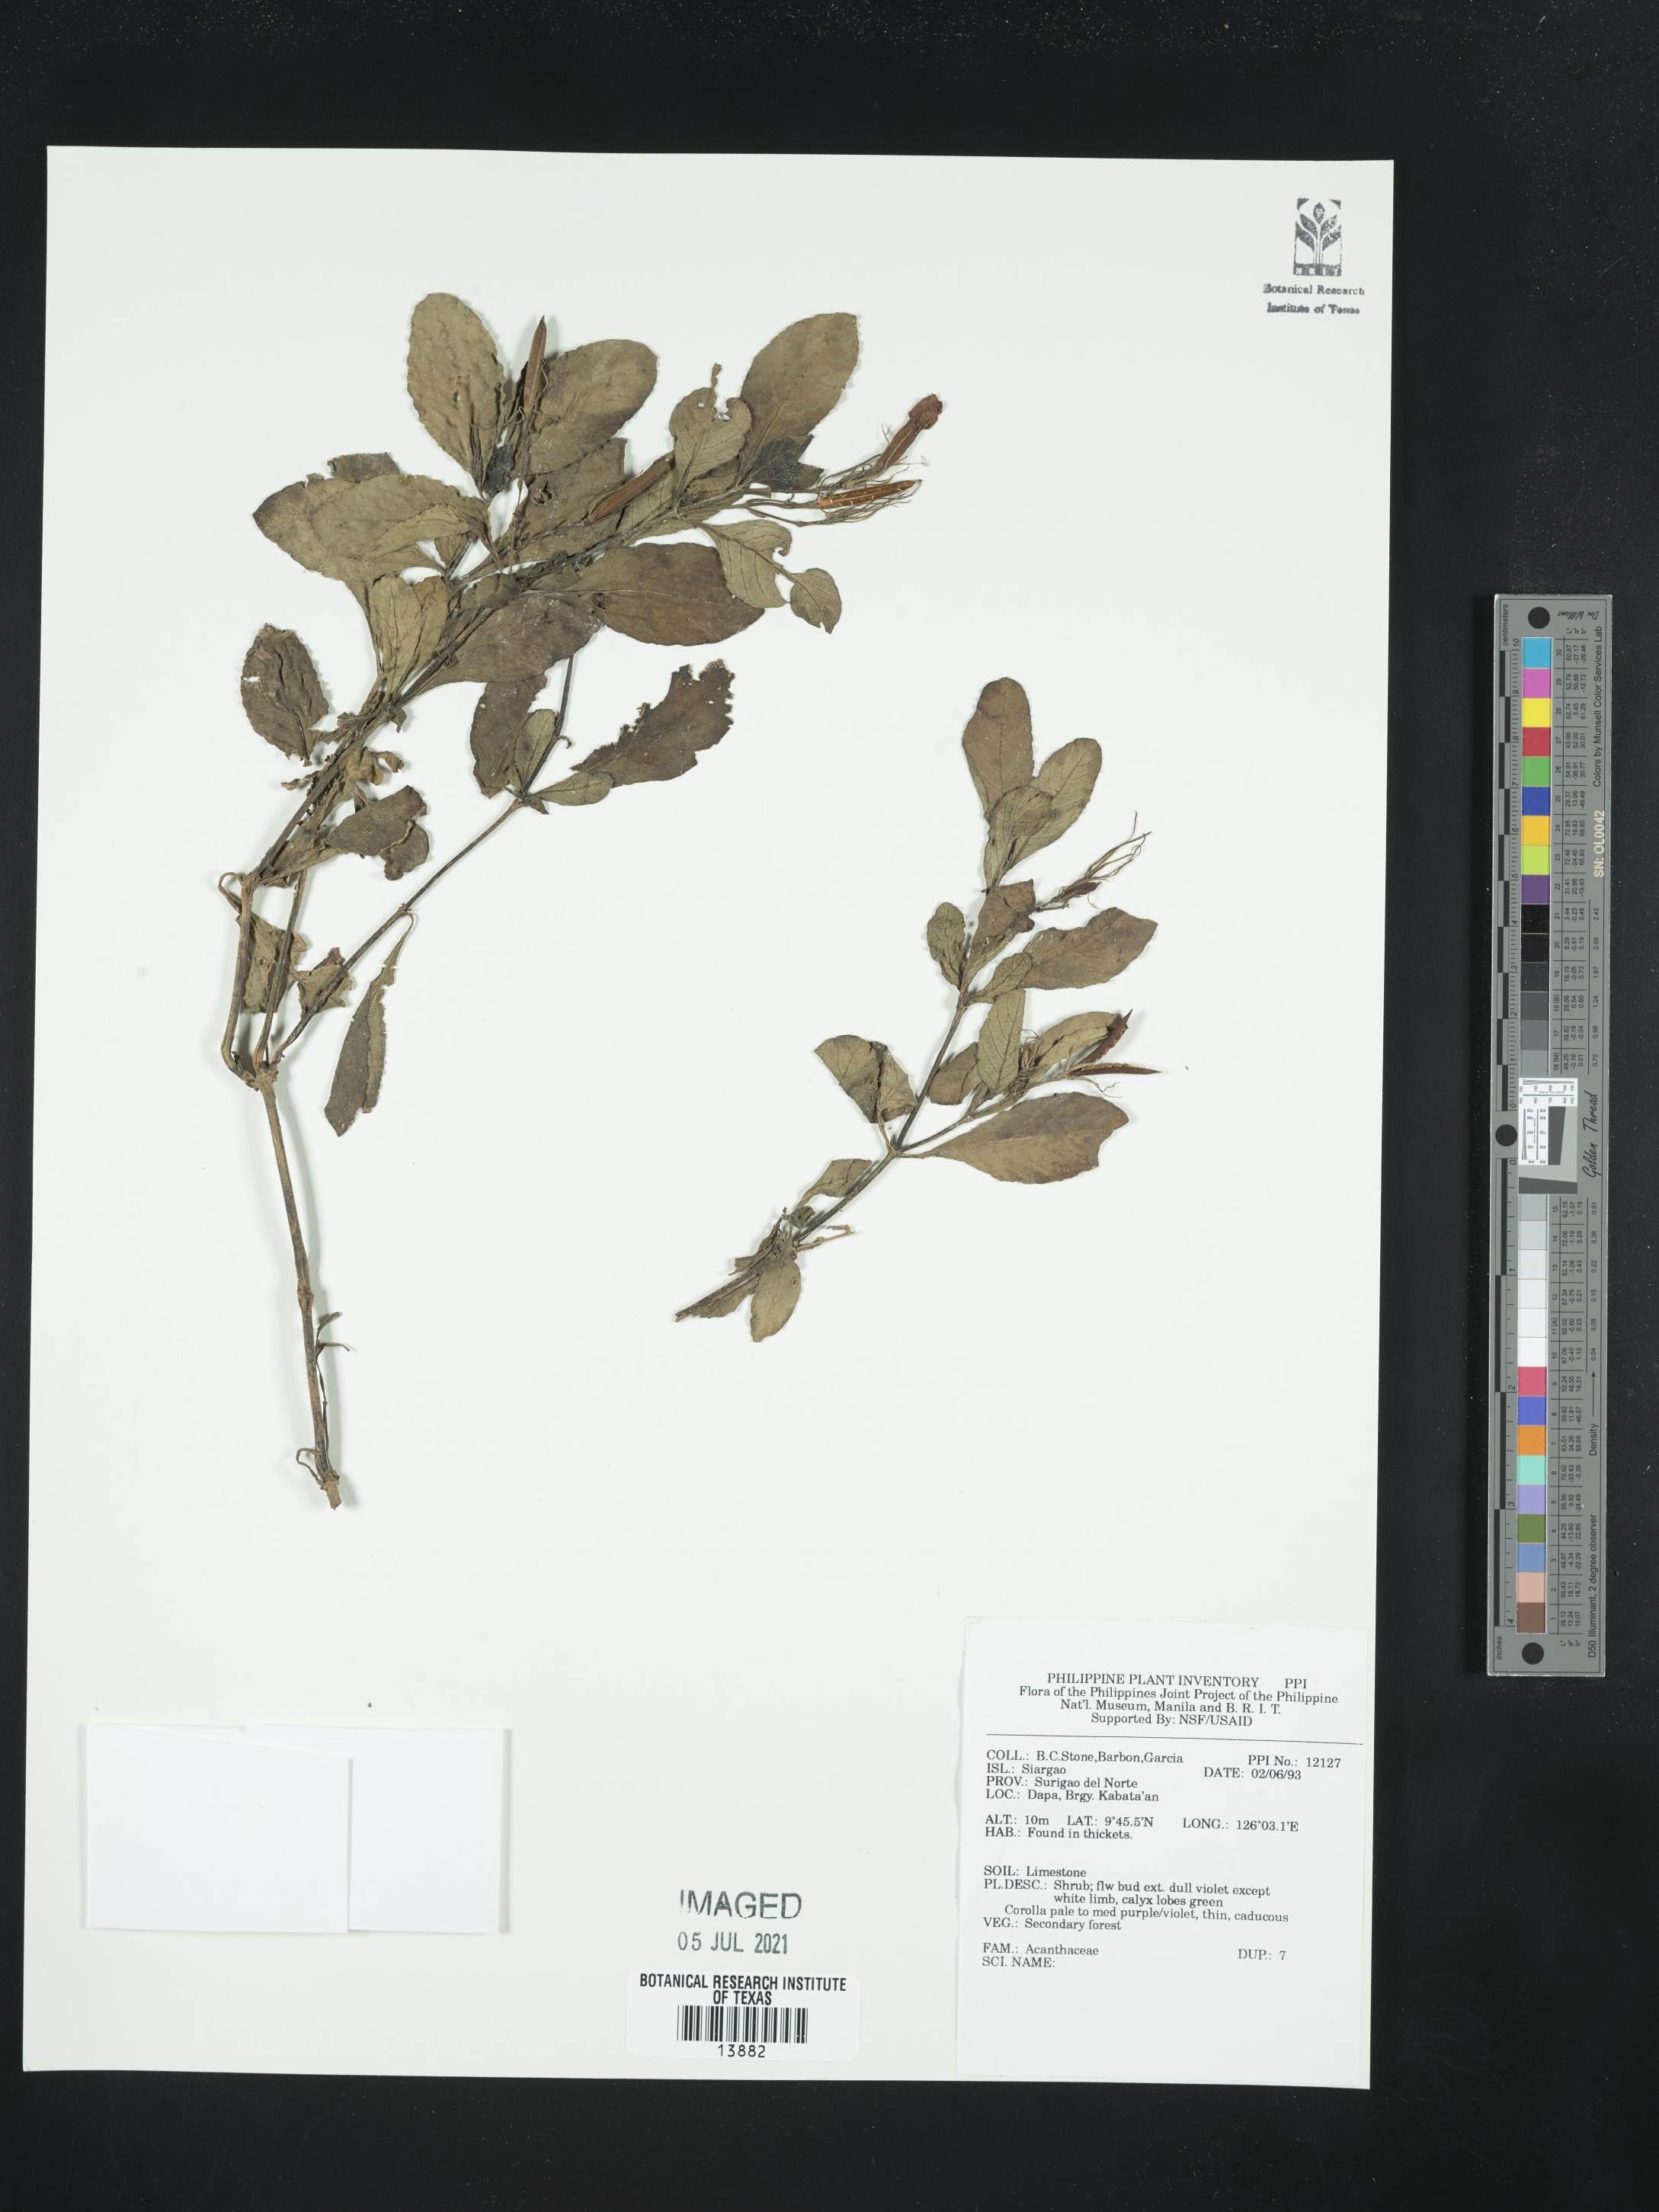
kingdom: Plantae
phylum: Tracheophyta
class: Magnoliopsida
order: Lamiales
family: Acanthaceae
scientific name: Acanthaceae
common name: Acanthaceae
